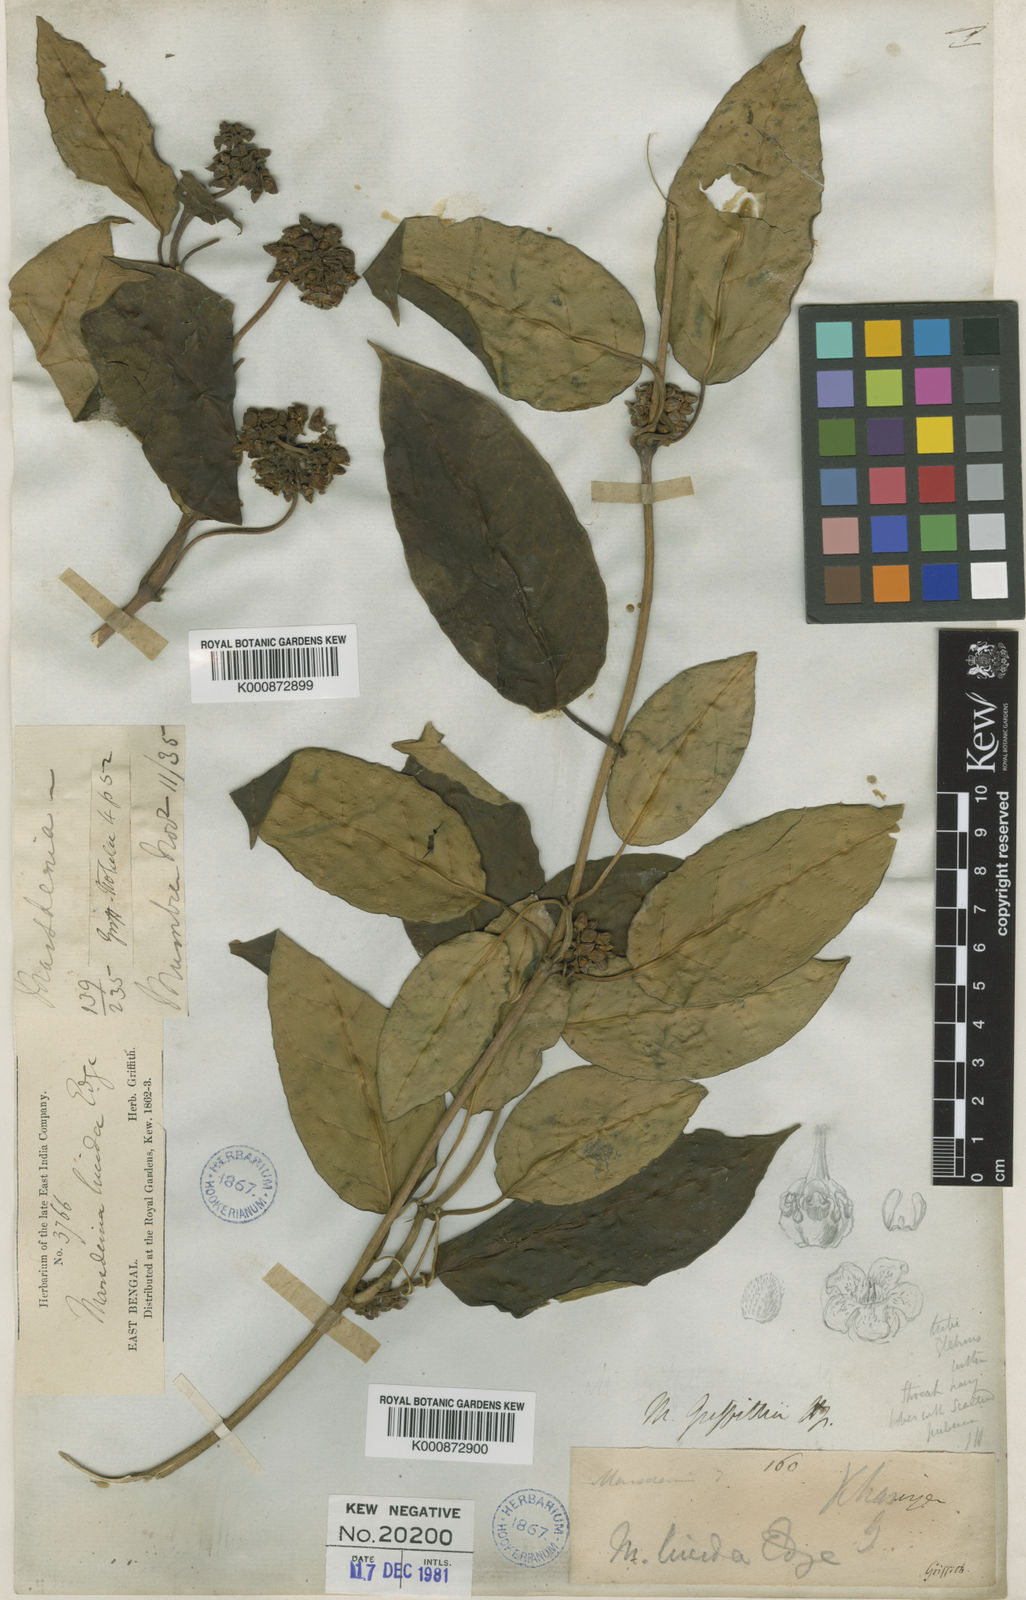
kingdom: Plantae
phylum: Tracheophyta
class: Magnoliopsida
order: Gentianales
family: Apocynaceae
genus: Sinomarsdenia
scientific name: Sinomarsdenia griffithii
